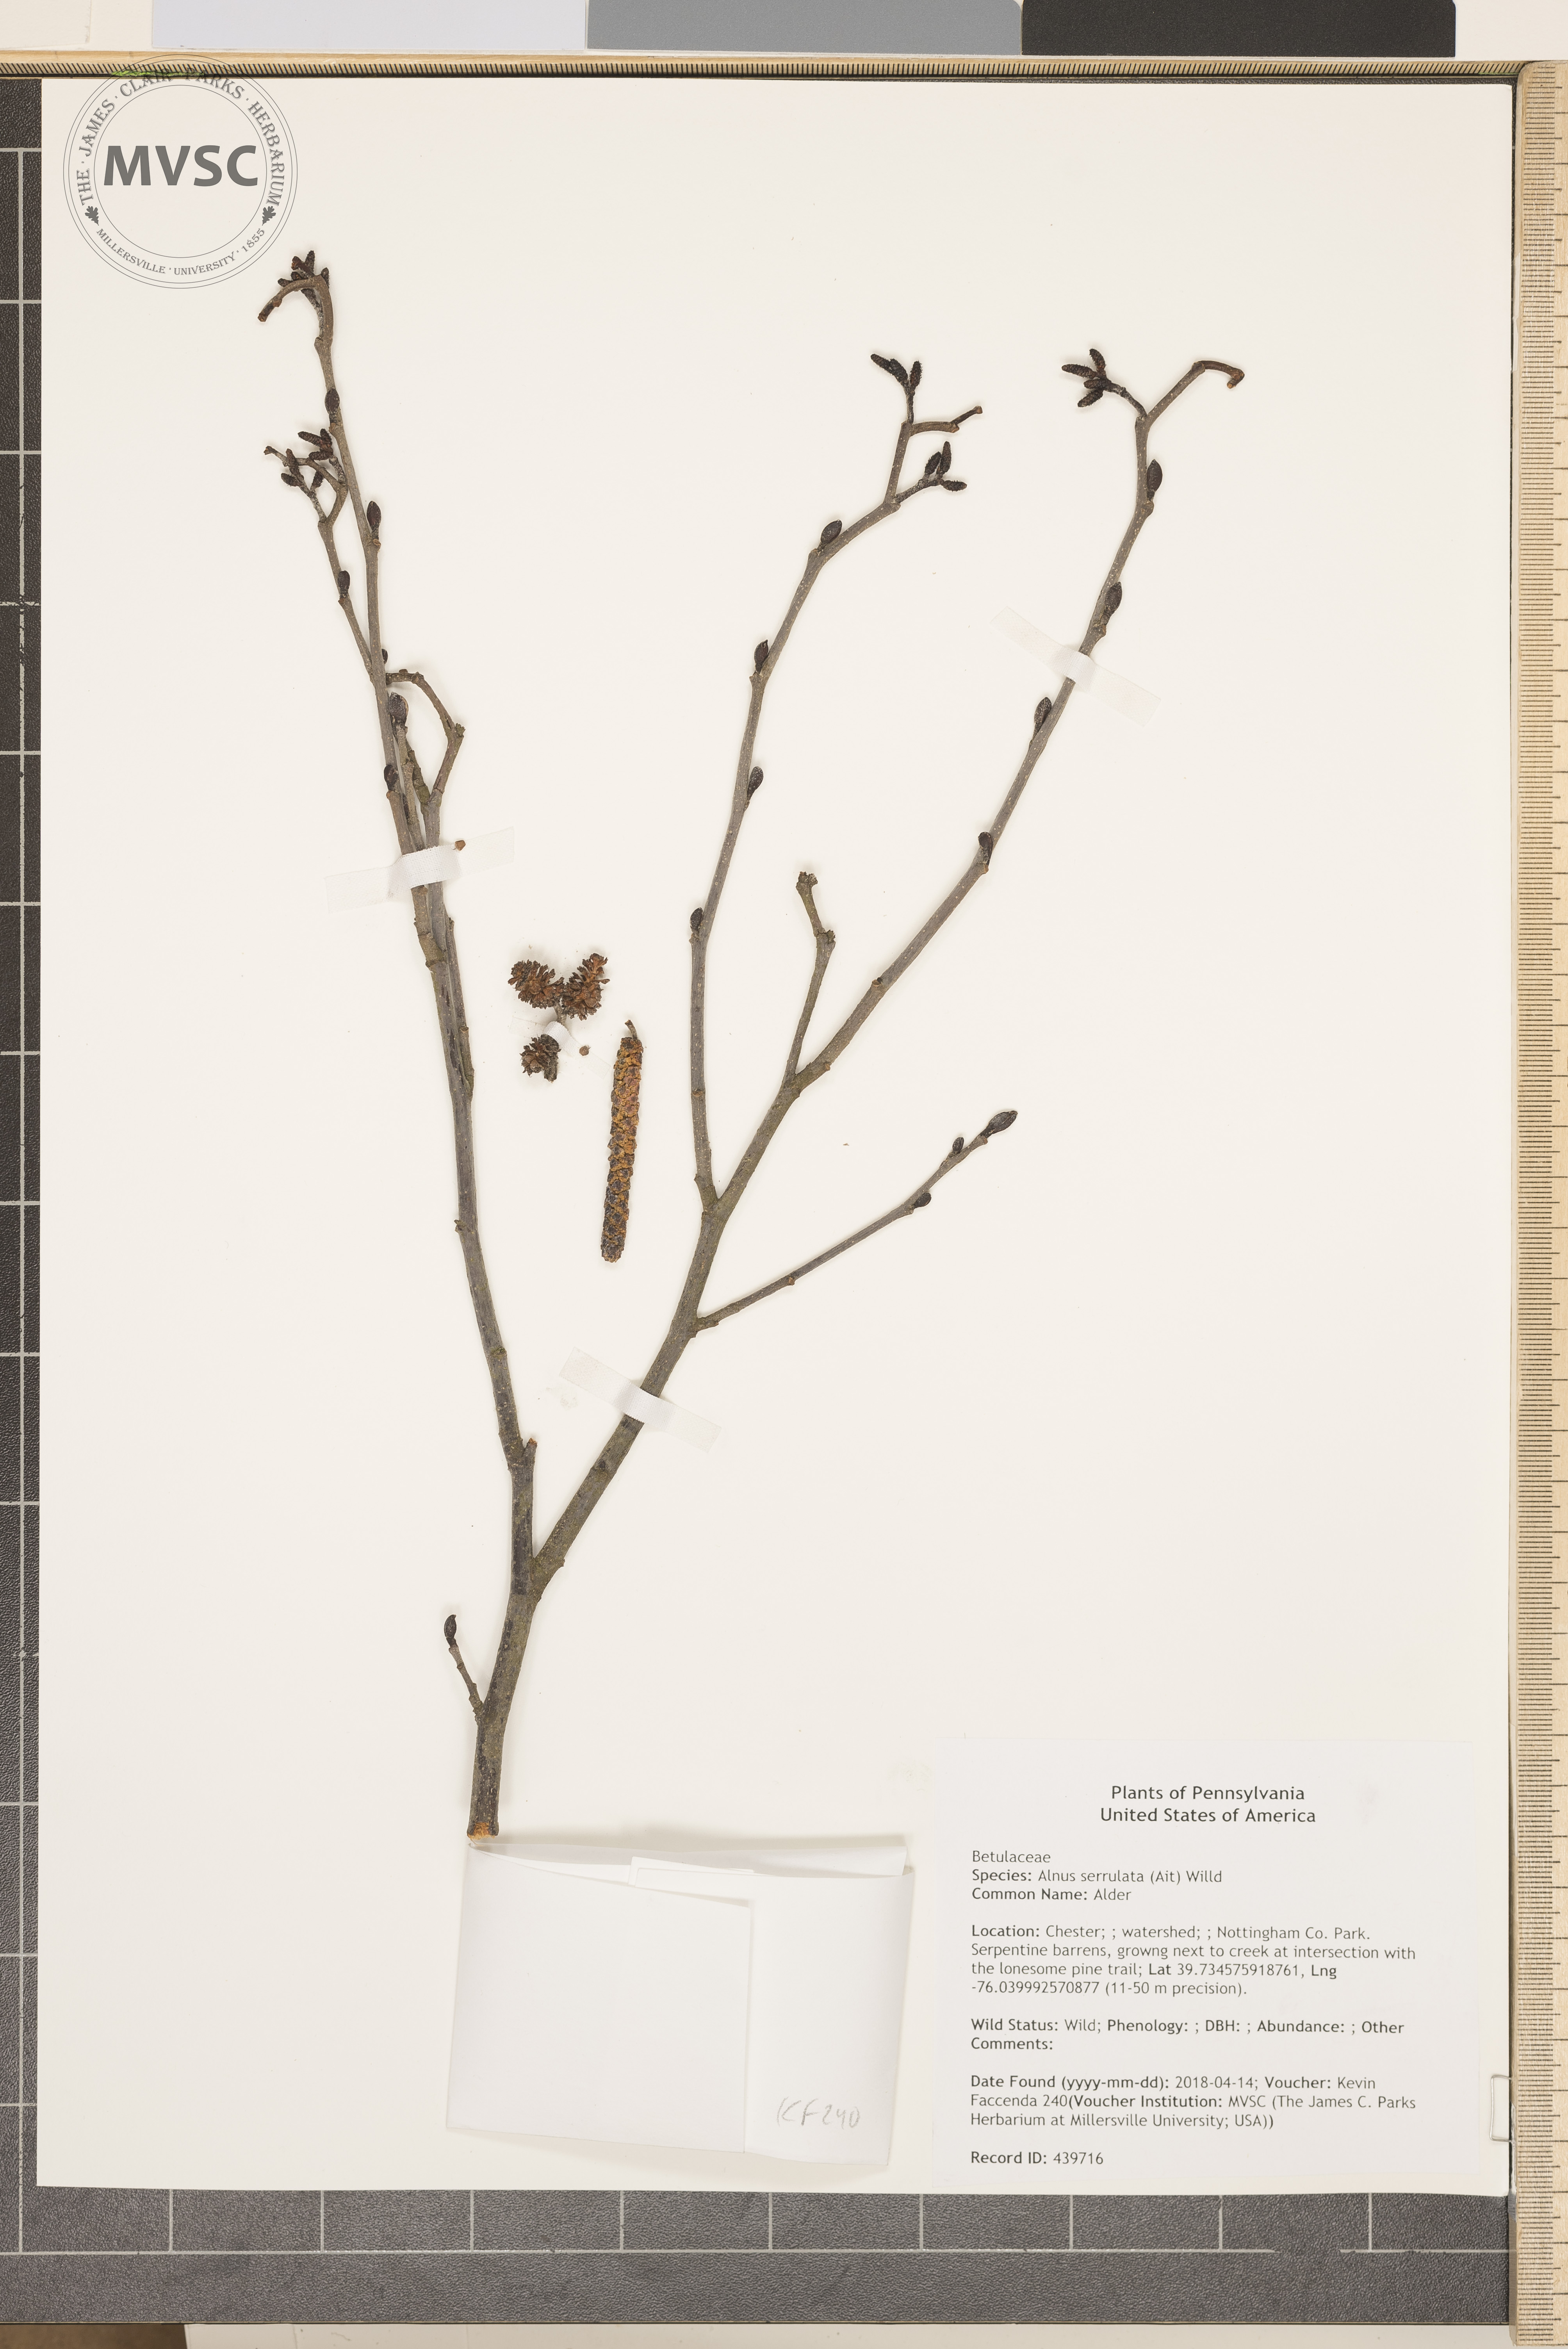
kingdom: Plantae
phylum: Tracheophyta
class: Magnoliopsida
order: Fagales
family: Betulaceae
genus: Alnus
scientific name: Alnus serrulata
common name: Alder
